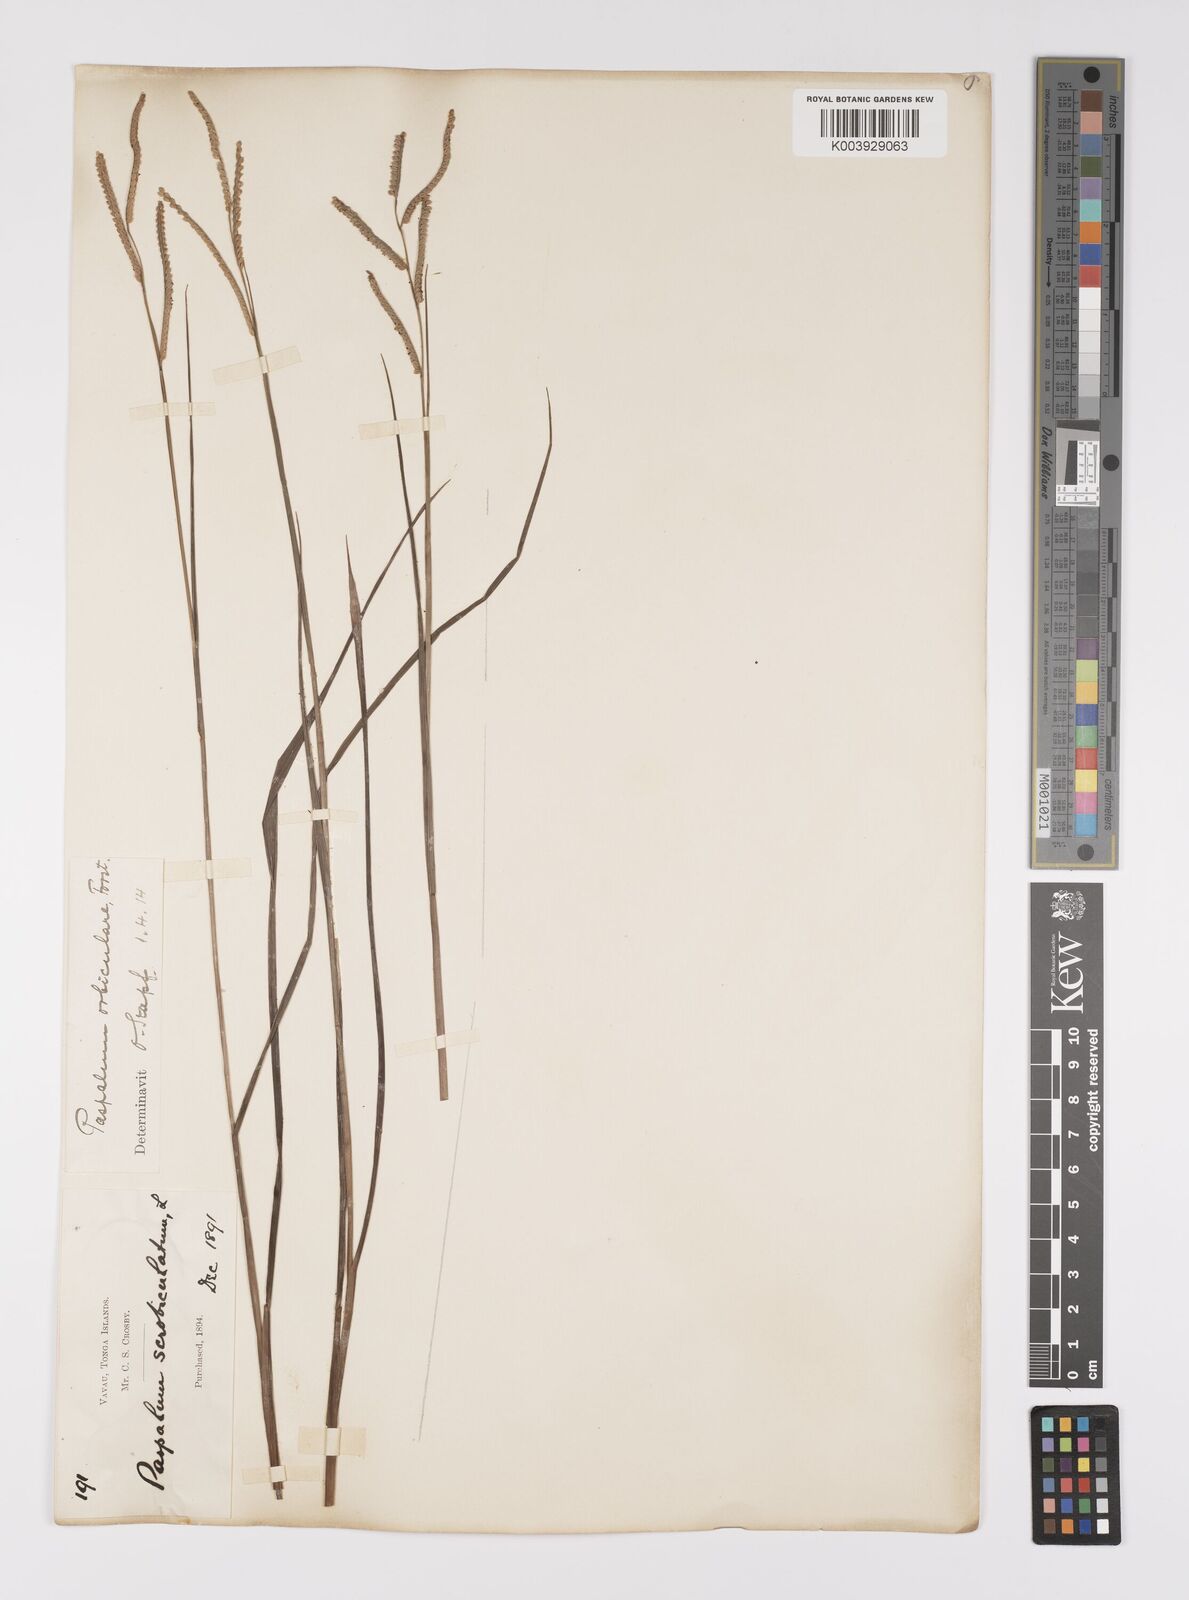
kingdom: Plantae
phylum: Tracheophyta
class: Liliopsida
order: Poales
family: Poaceae
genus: Paspalum
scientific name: Paspalum scrobiculatum
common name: Kodo millet
